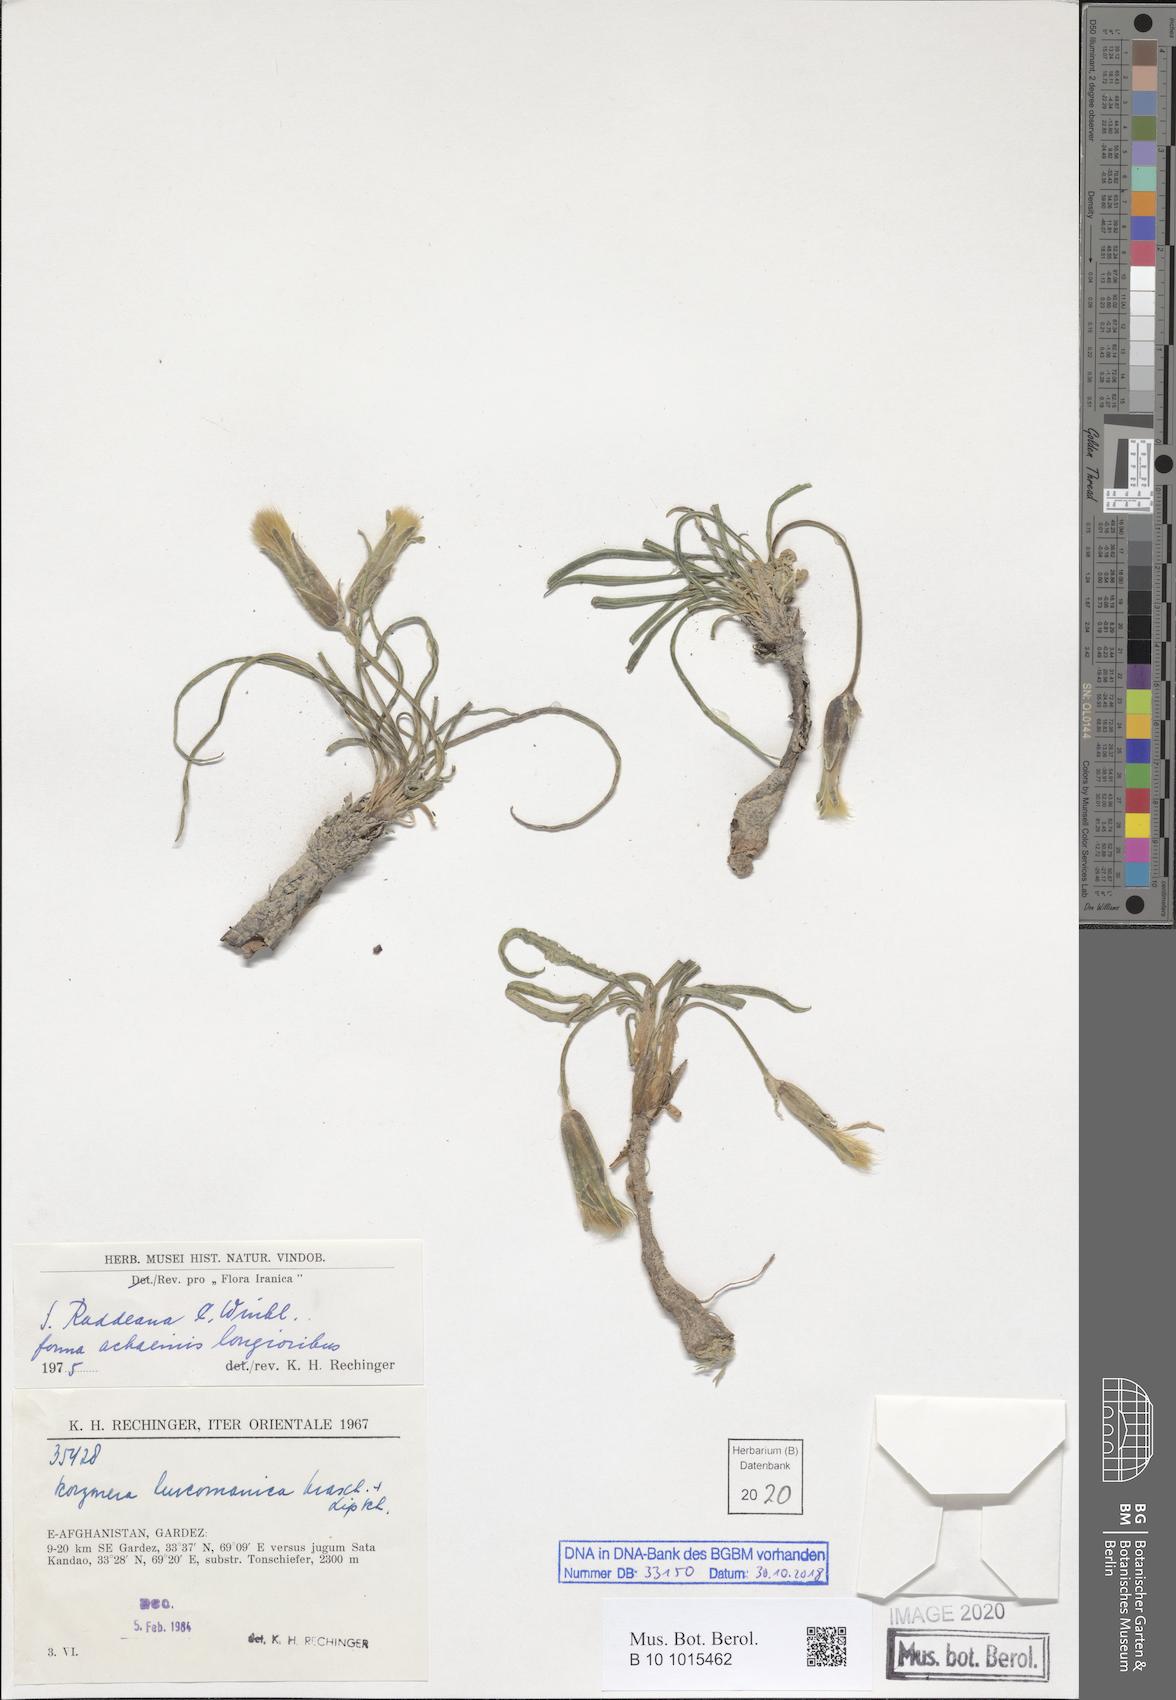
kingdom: Plantae
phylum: Tracheophyta
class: Magnoliopsida
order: Asterales
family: Asteraceae
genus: Candollea
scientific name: Candollea raddeana
